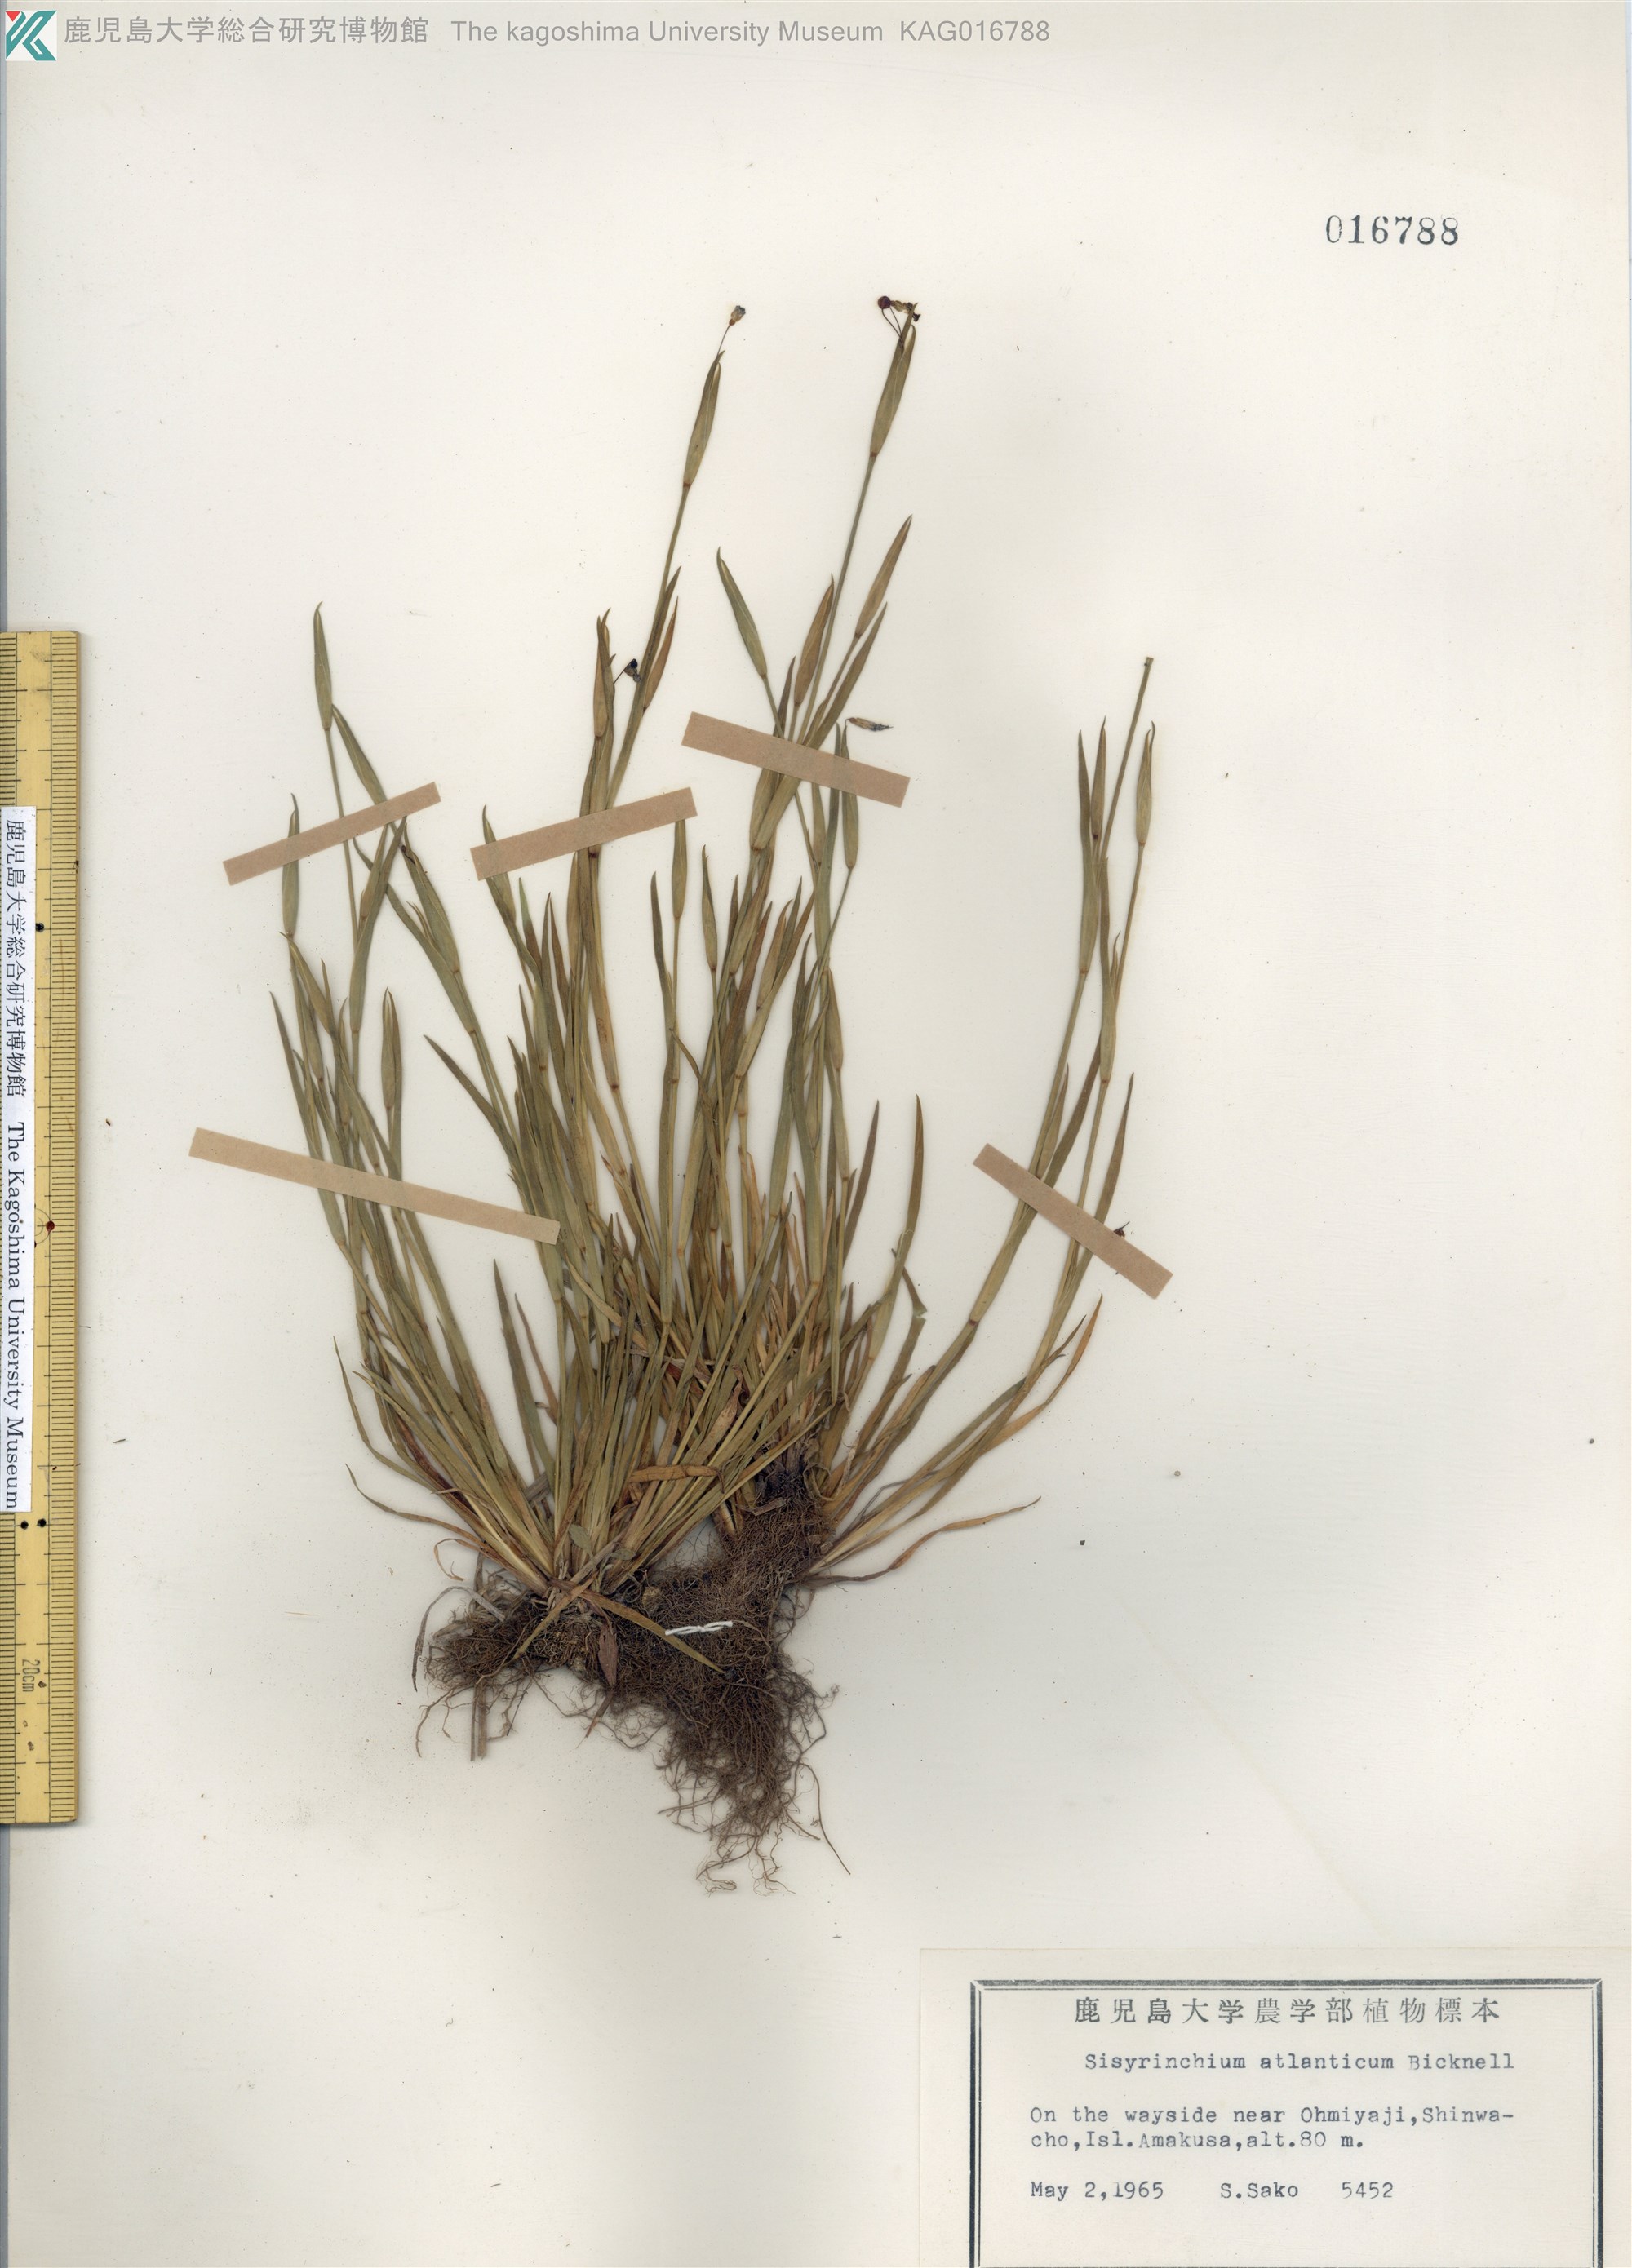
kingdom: Plantae
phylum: Tracheophyta
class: Liliopsida
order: Asparagales
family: Iridaceae
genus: Sisyrinchium
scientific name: Sisyrinchium rosulatum
